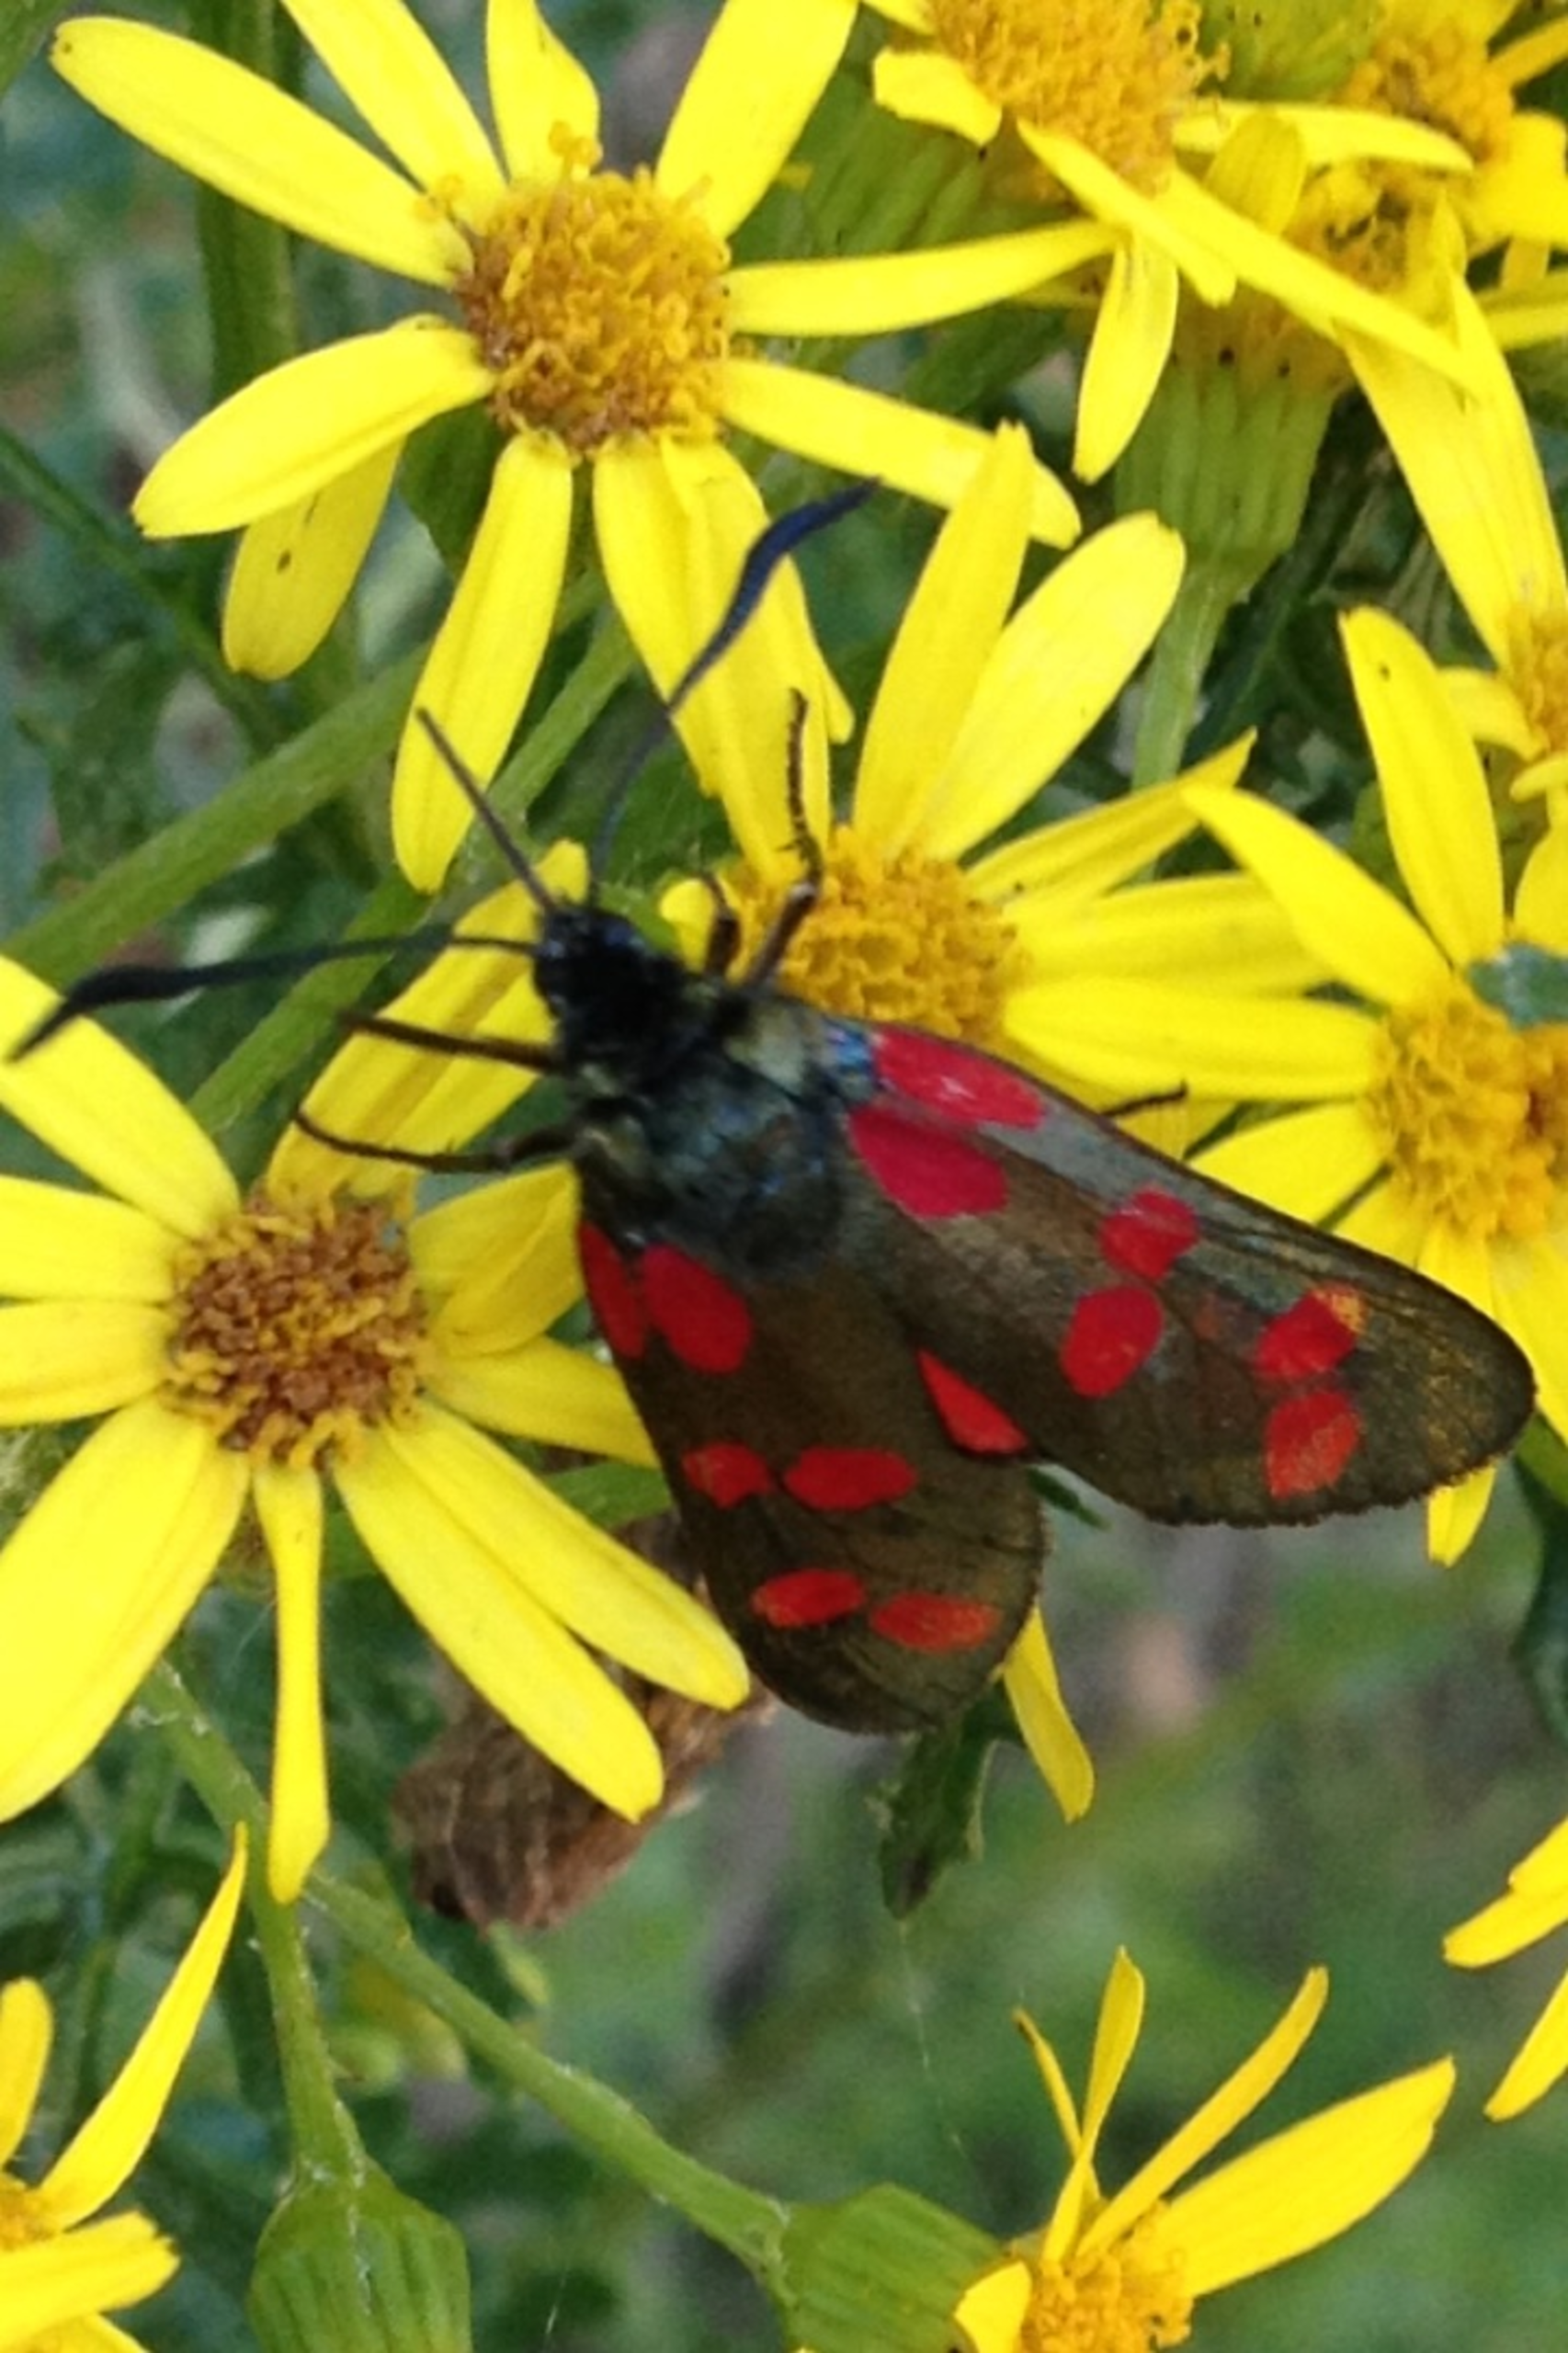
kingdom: Animalia
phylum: Arthropoda
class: Insecta
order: Lepidoptera
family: Zygaenidae
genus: Zygaena
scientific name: Zygaena filipendulae
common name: Seksplettet køllesværmer
